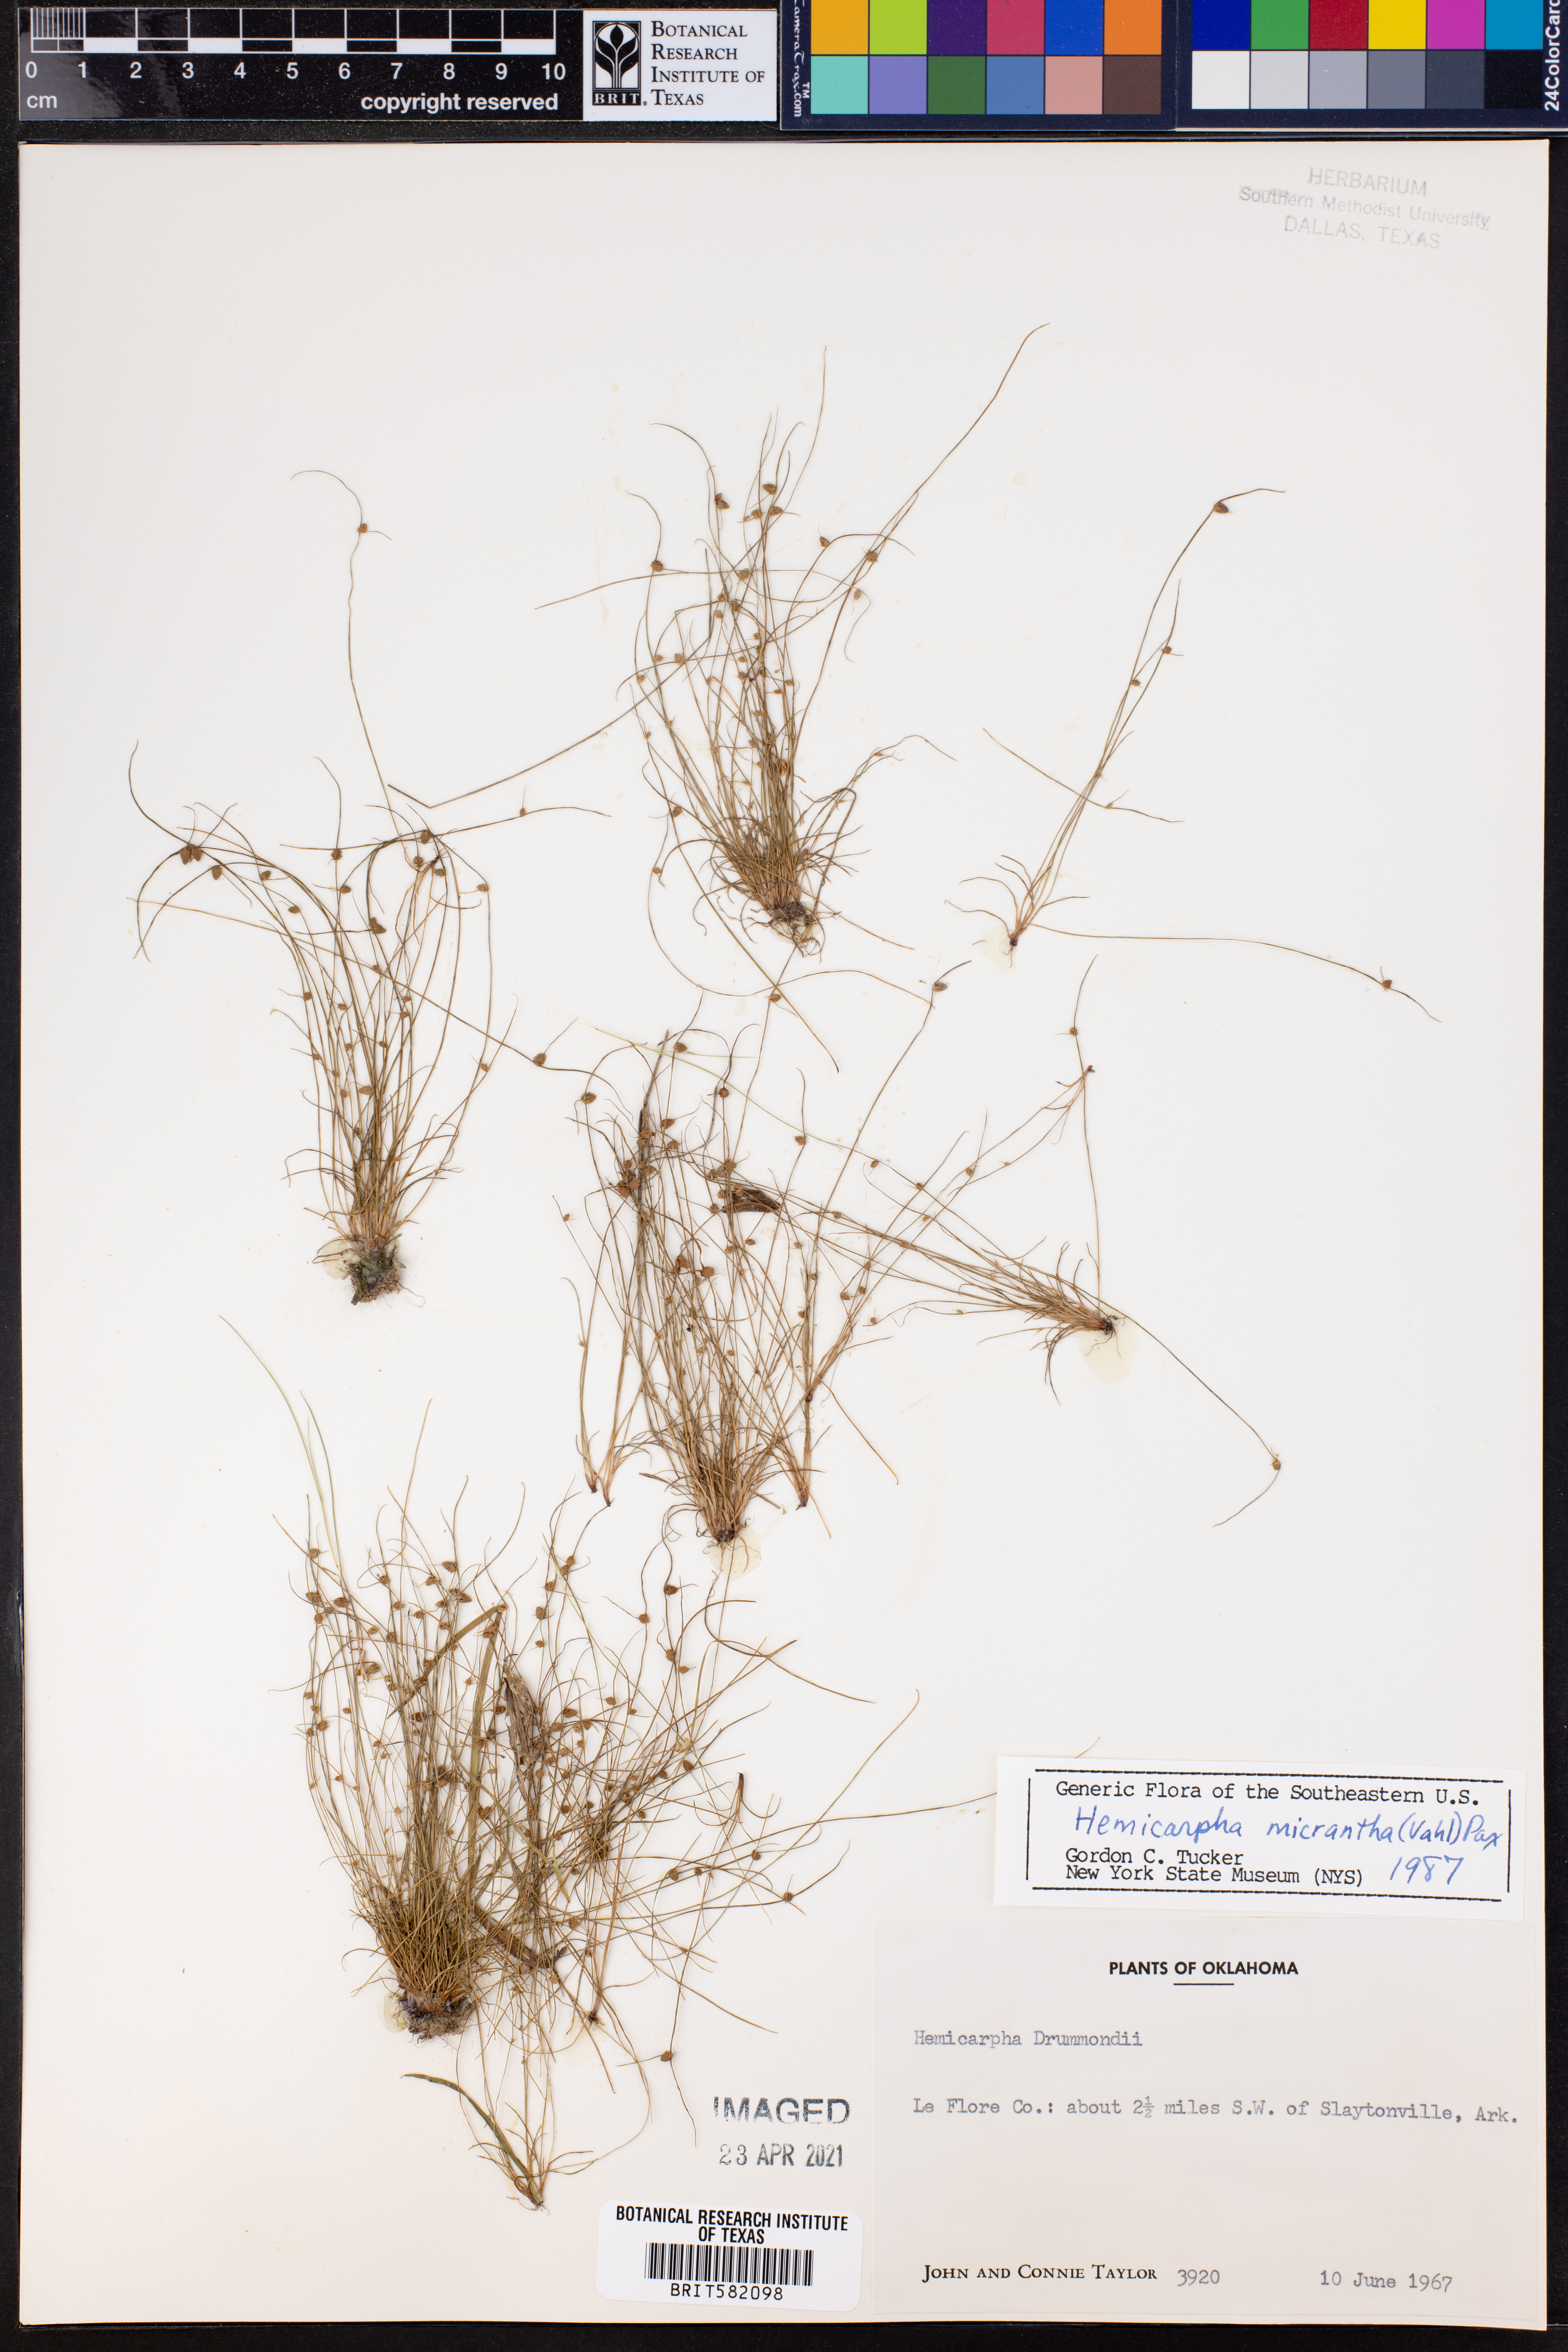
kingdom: Plantae
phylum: Tracheophyta
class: Liliopsida
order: Poales
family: Cyperaceae
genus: Cyperus
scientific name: Cyperus subsquarrosus
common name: Dwarf bulrush
